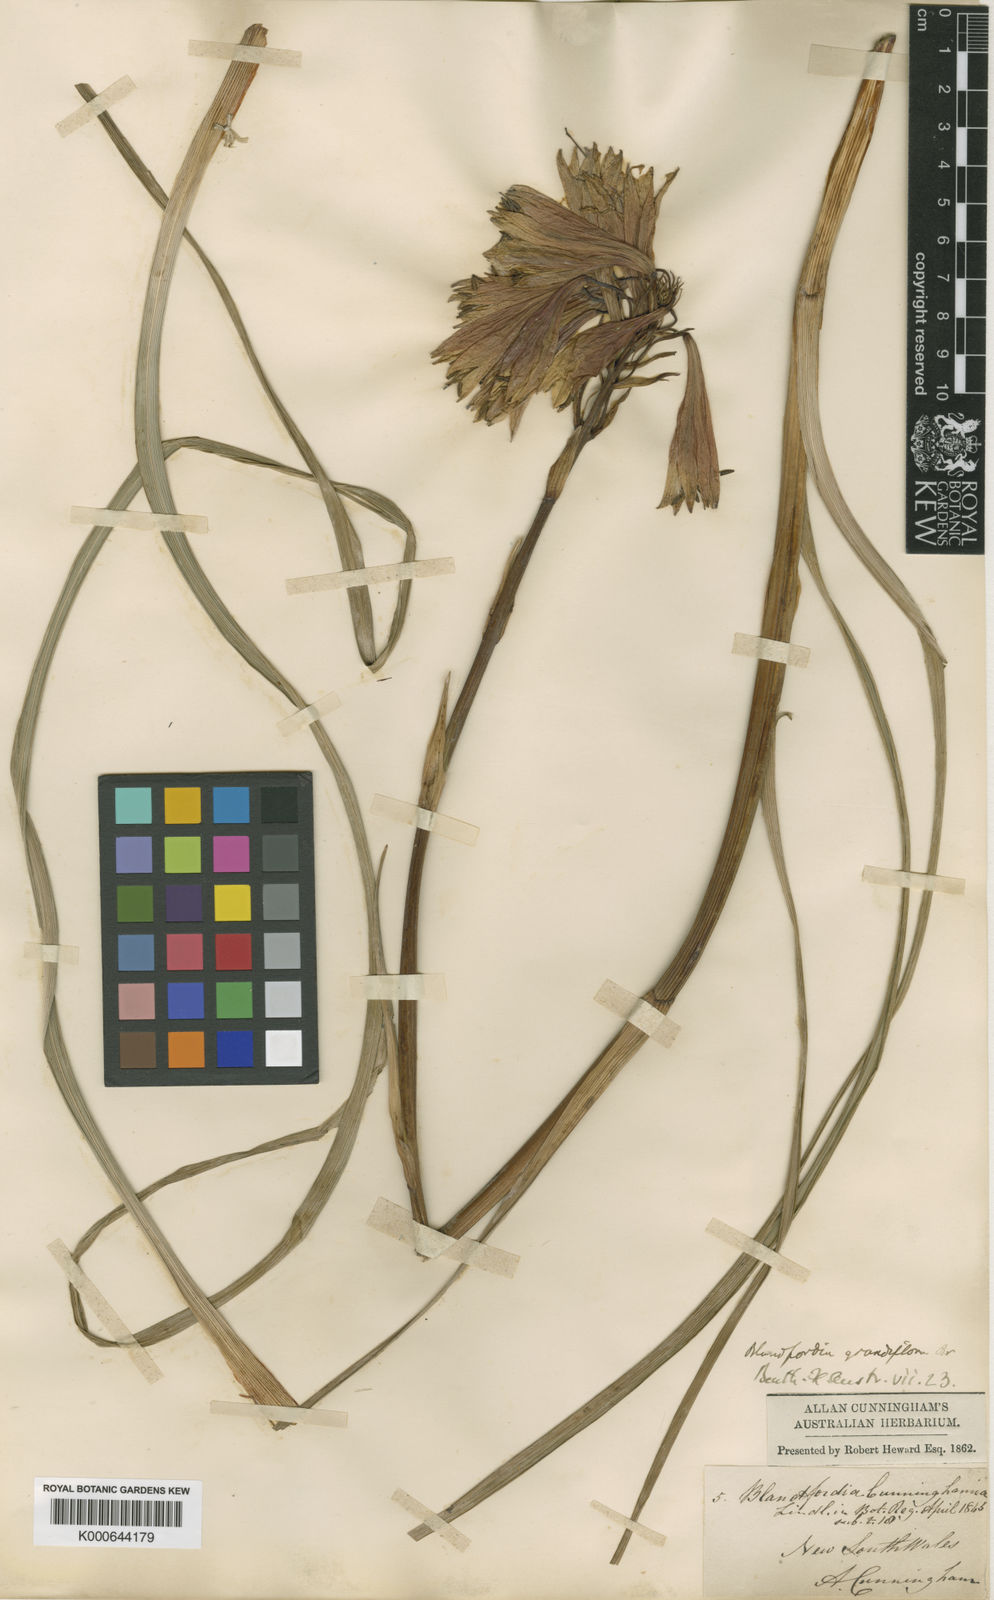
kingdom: Plantae
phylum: Tracheophyta
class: Liliopsida
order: Asparagales
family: Blandfordiaceae
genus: Blandfordia
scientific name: Blandfordia cunninghamii
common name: Christmas-bell
